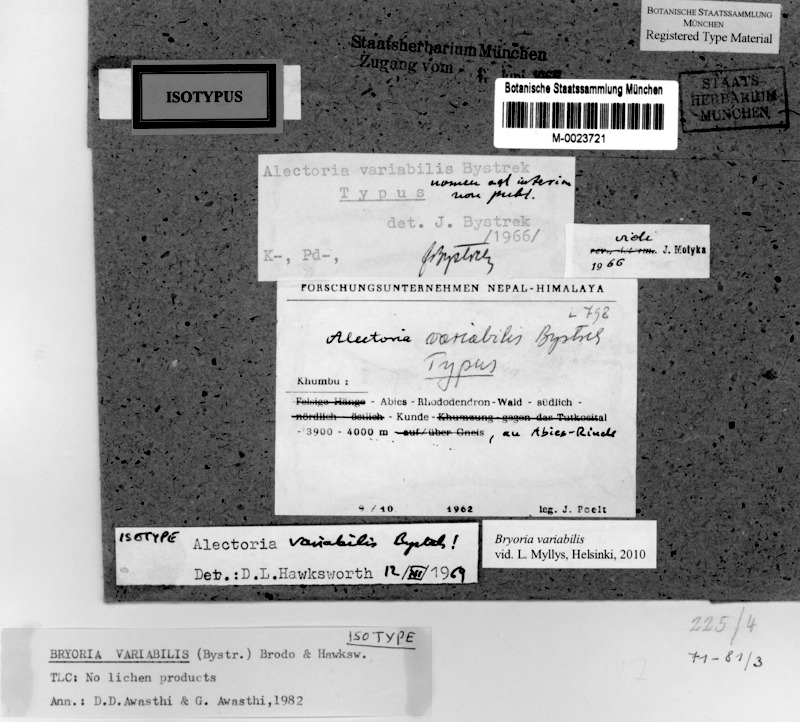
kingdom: Fungi
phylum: Ascomycota
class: Lecanoromycetes
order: Lecanorales
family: Parmeliaceae
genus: Bryoria
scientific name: Bryoria variabilis
